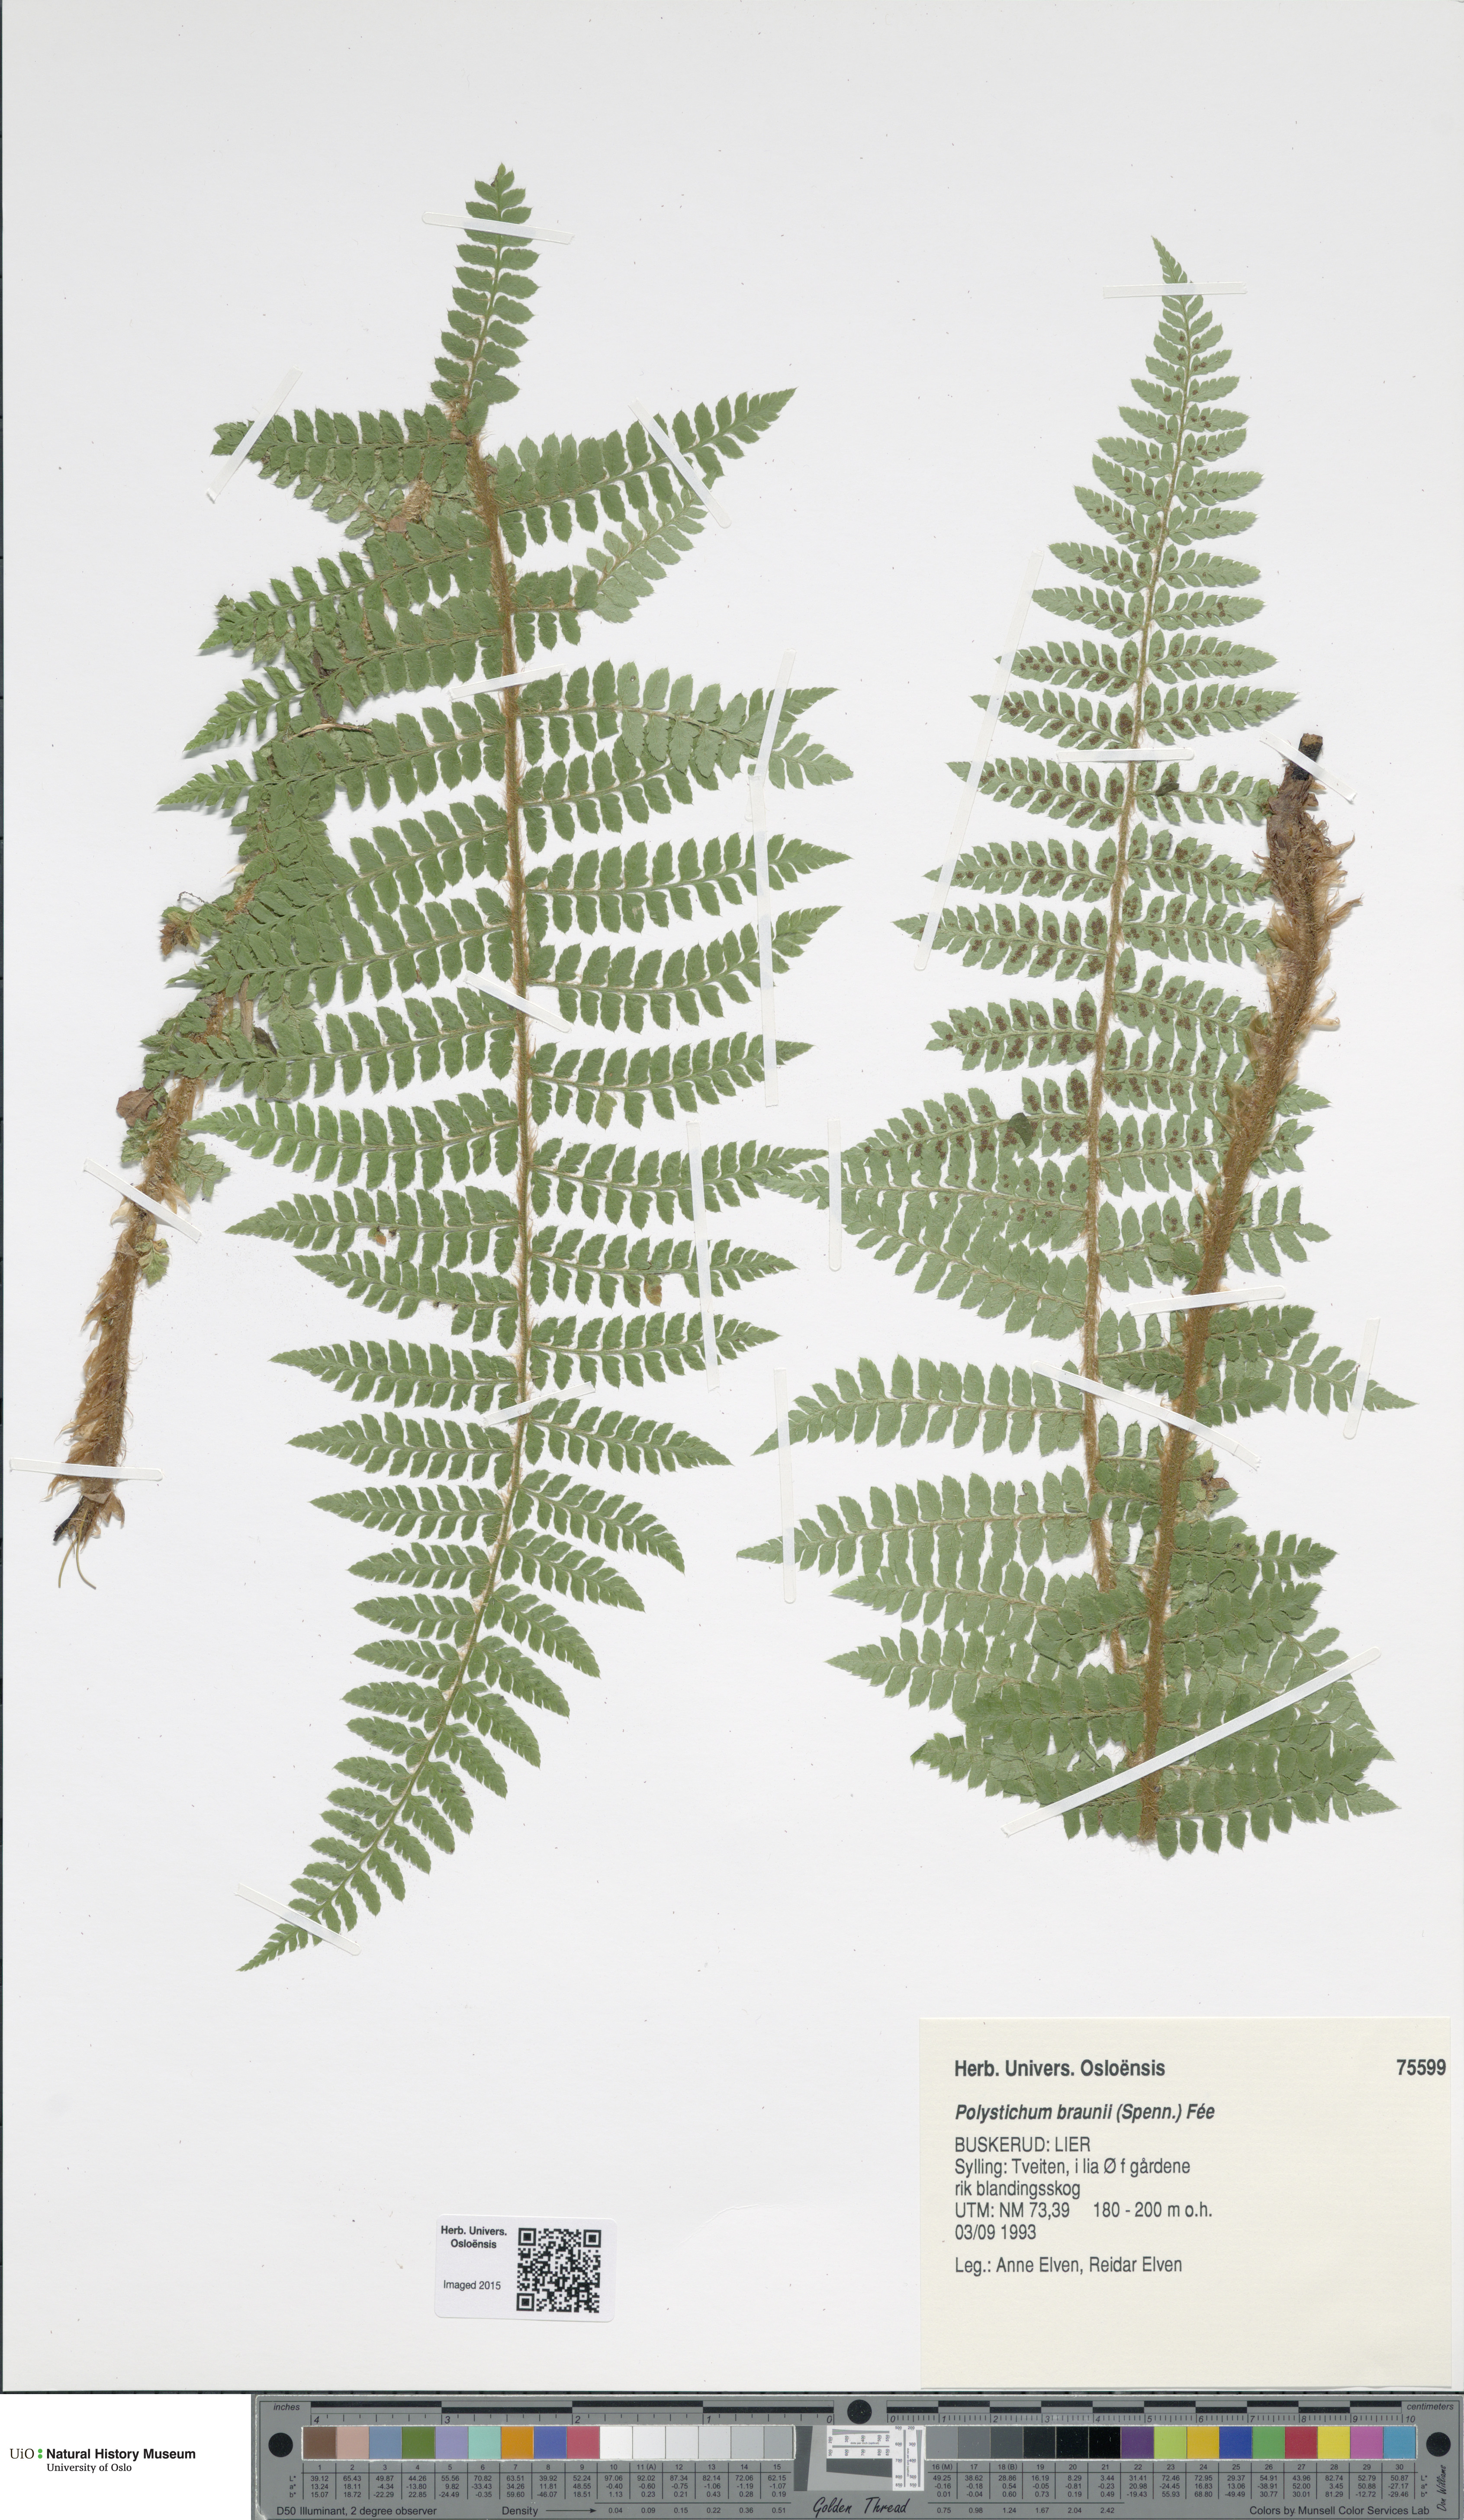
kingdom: Plantae
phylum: Tracheophyta
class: Polypodiopsida
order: Polypodiales
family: Dryopteridaceae
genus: Polystichum
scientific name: Polystichum braunii
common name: Braun's holly fern
